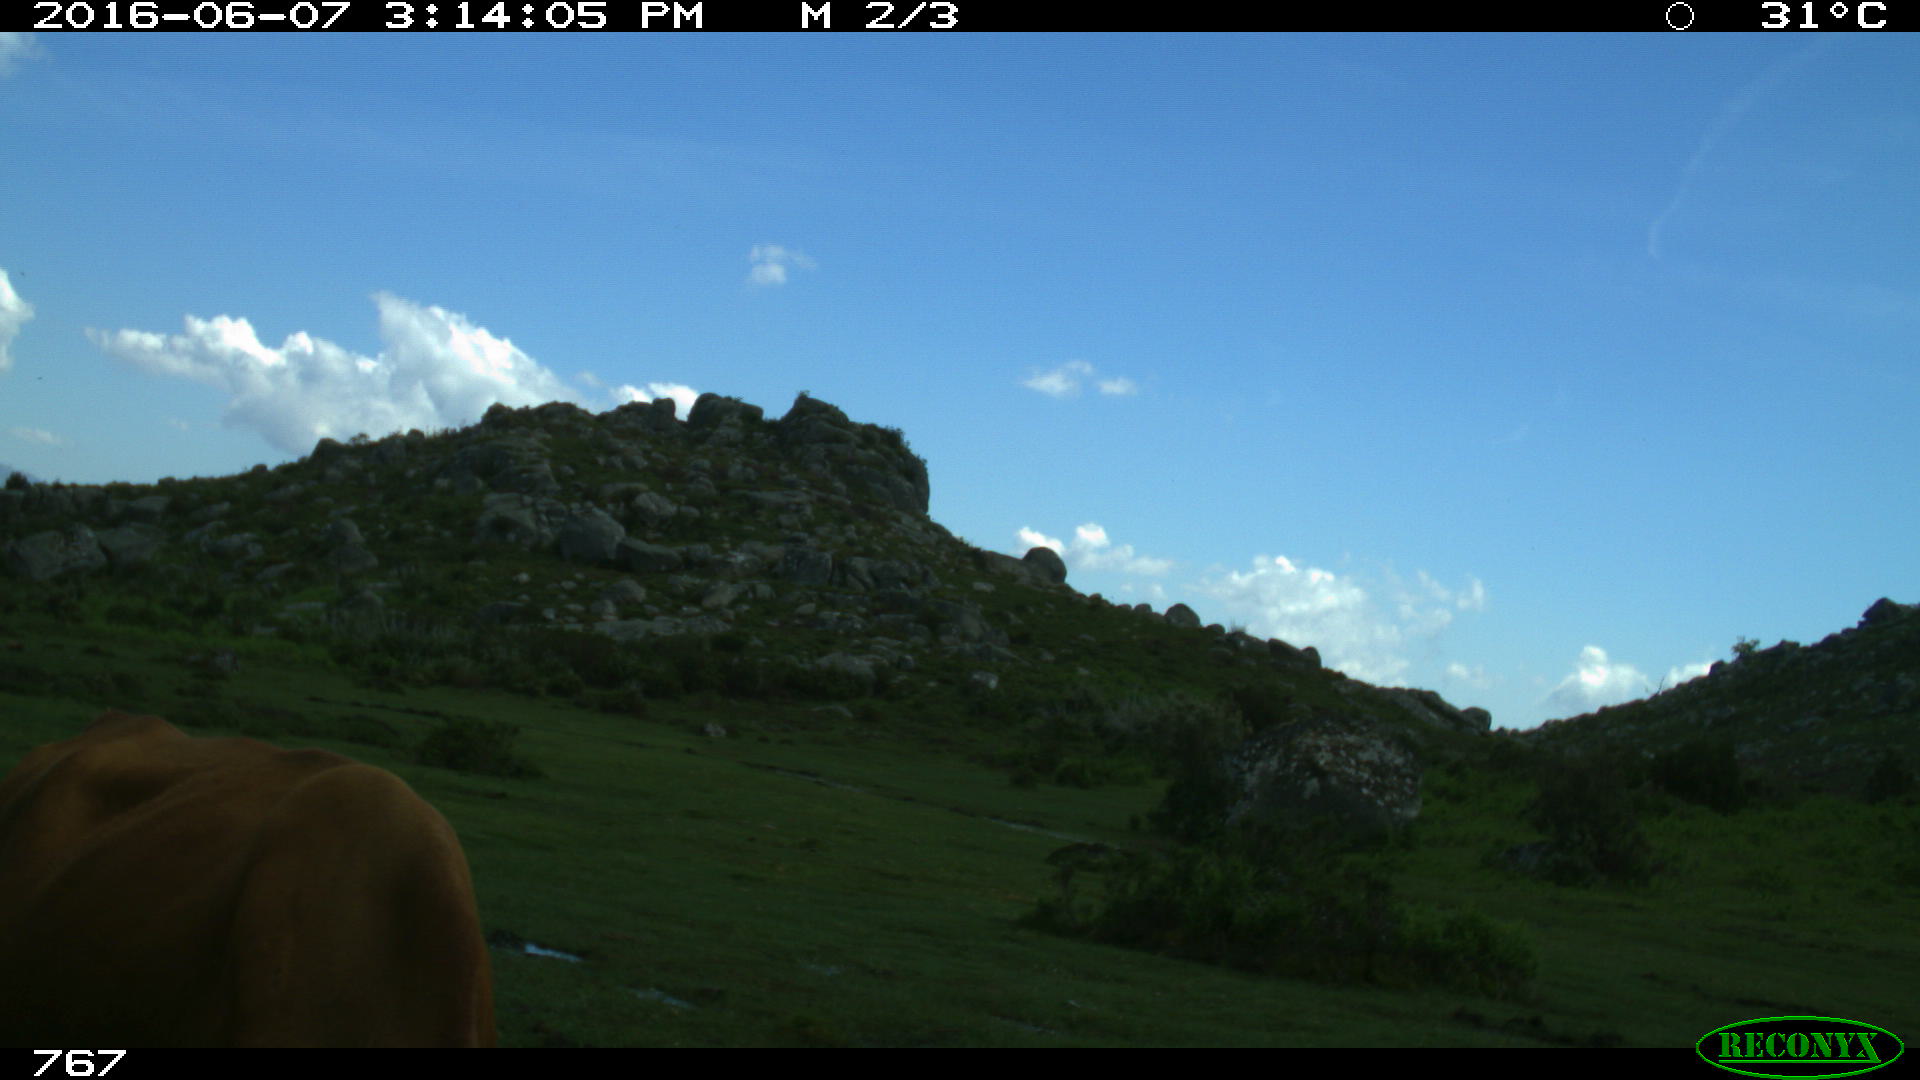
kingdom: Animalia
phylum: Chordata
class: Mammalia
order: Artiodactyla
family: Bovidae
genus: Bos
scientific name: Bos taurus
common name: Domesticated cattle
